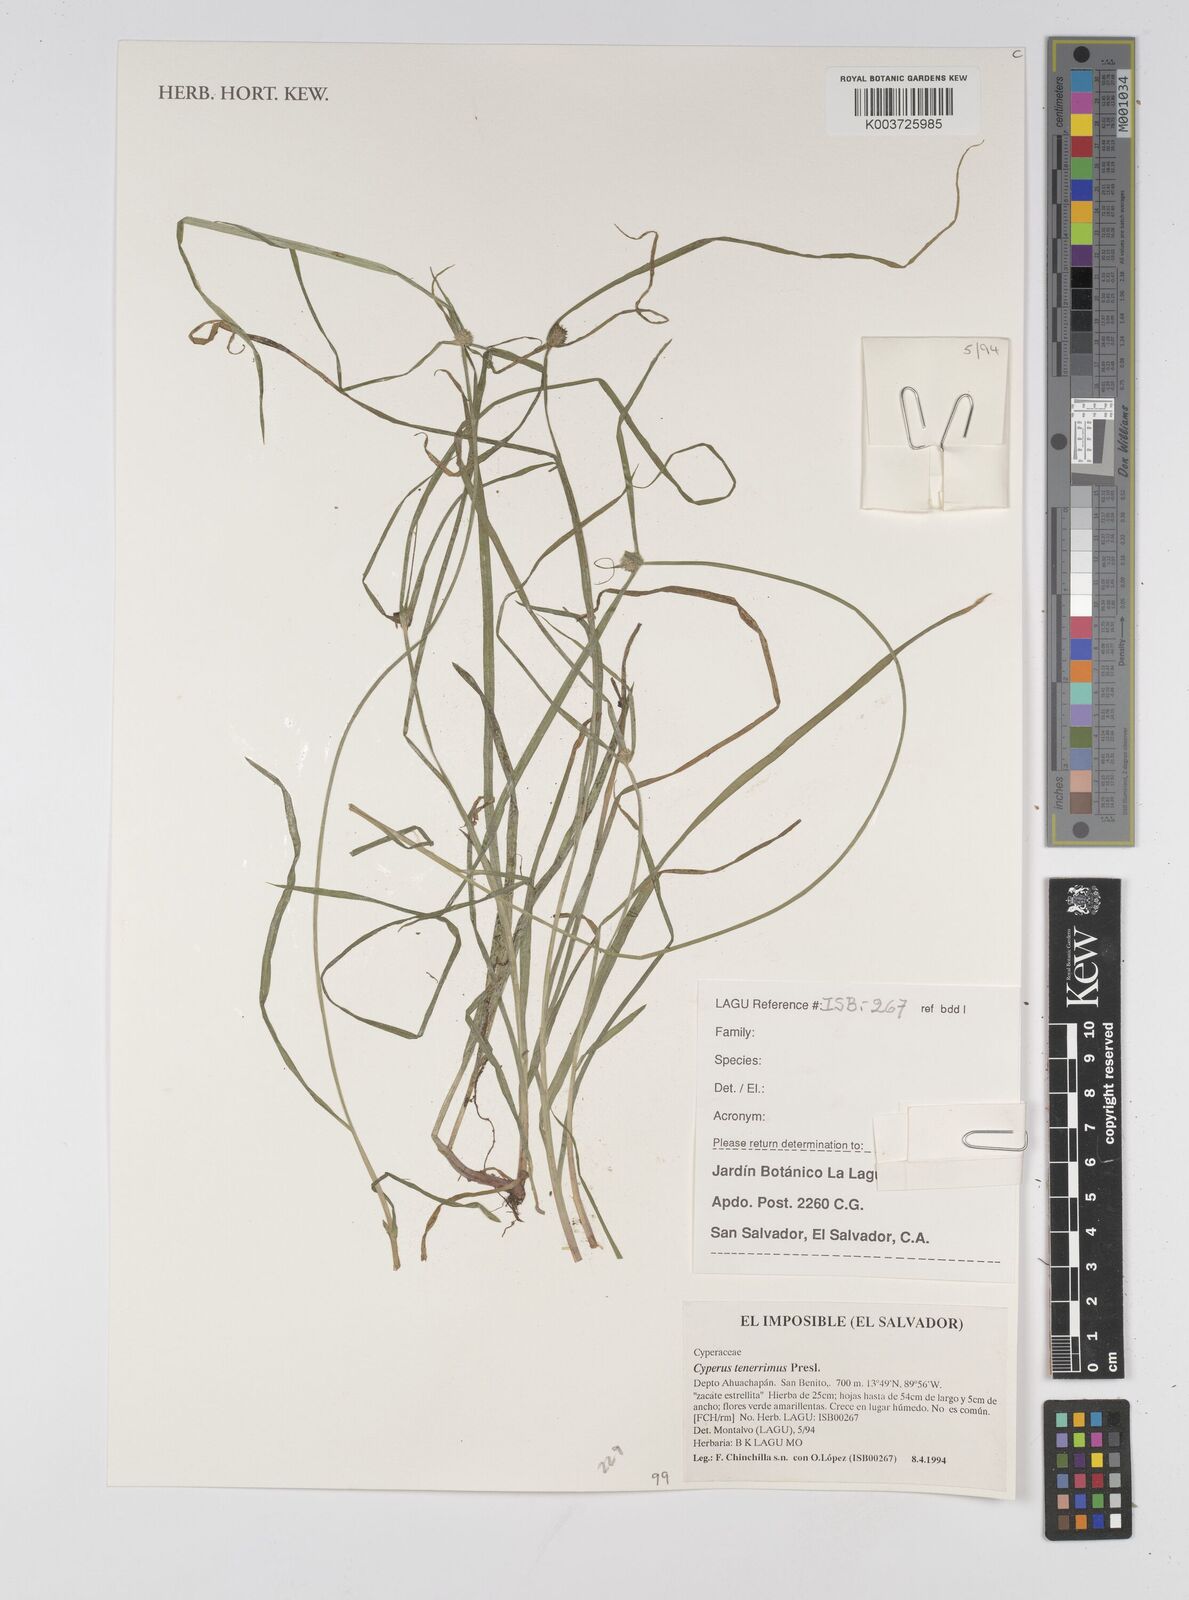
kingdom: Plantae
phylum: Tracheophyta
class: Liliopsida
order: Poales
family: Cyperaceae
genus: Cyperus
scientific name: Cyperus tenerrimus
